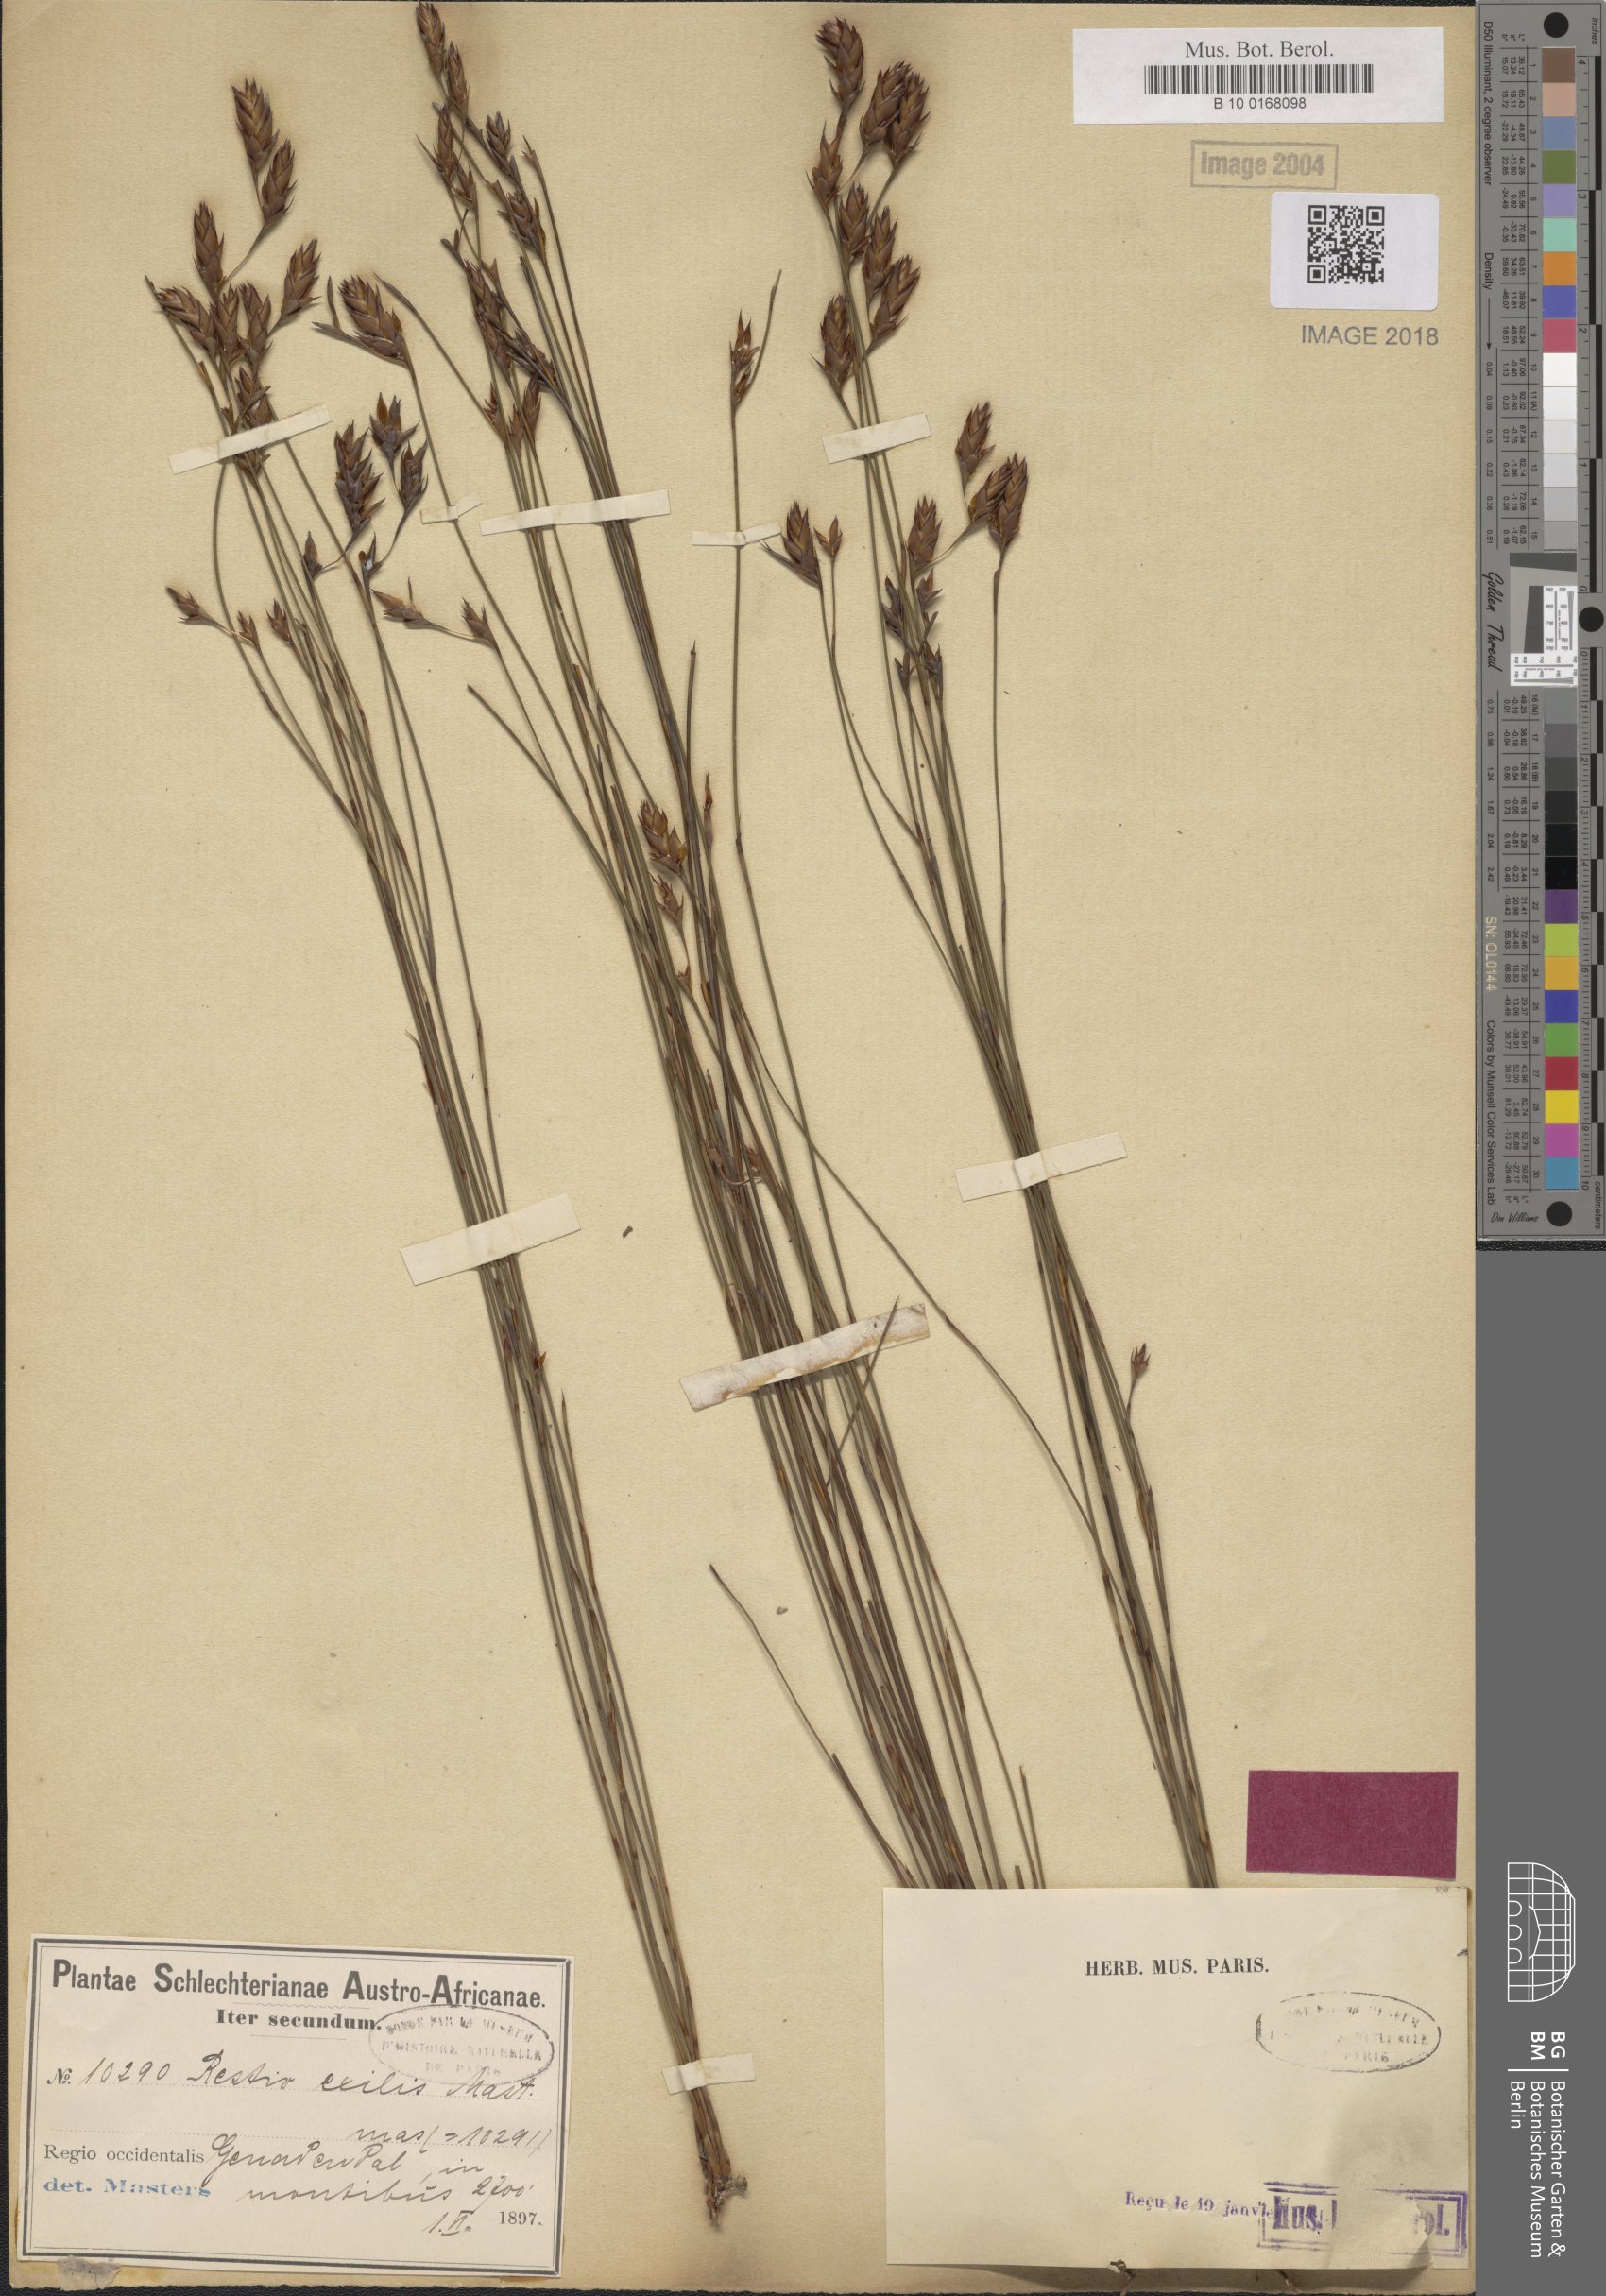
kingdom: Plantae
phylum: Tracheophyta
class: Liliopsida
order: Poales
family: Restionaceae
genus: Restio
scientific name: Restio exilis
